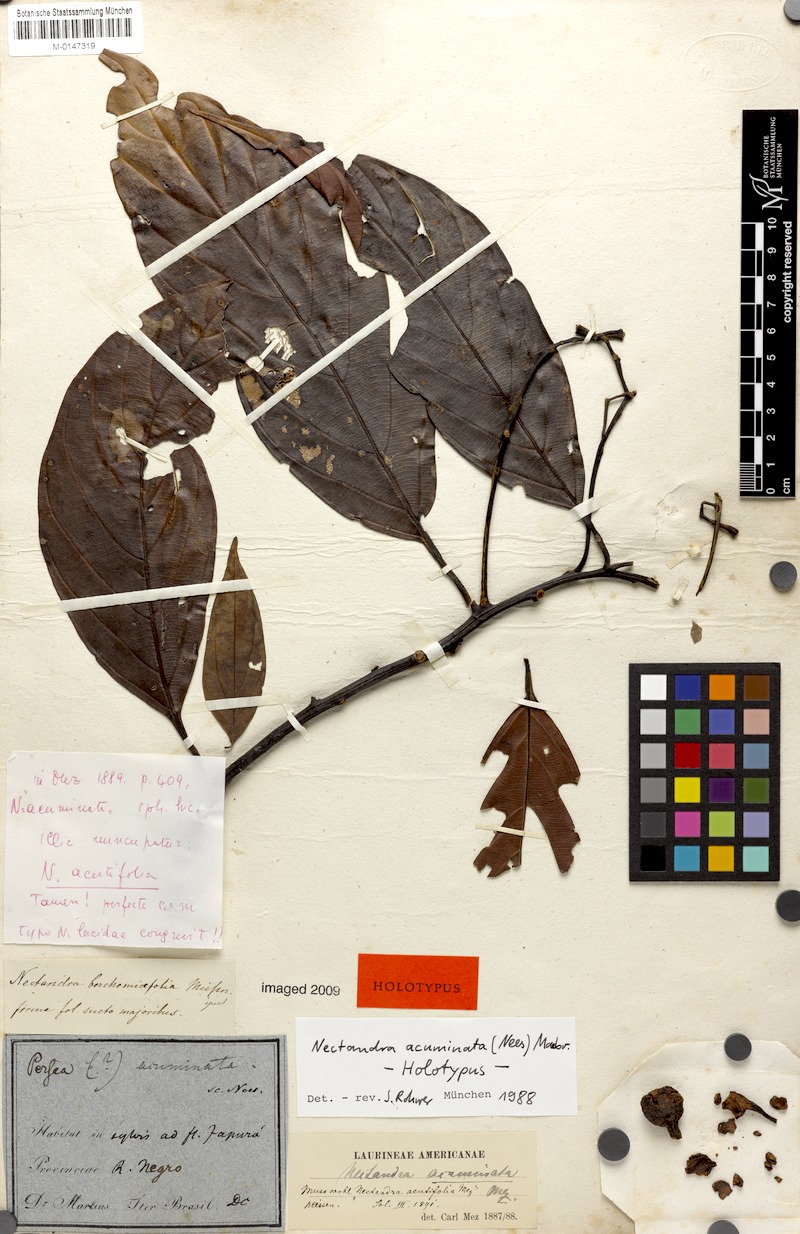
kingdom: Plantae
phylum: Tracheophyta
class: Magnoliopsida
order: Laurales
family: Lauraceae
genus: Nectandra
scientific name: Nectandra acuminata
